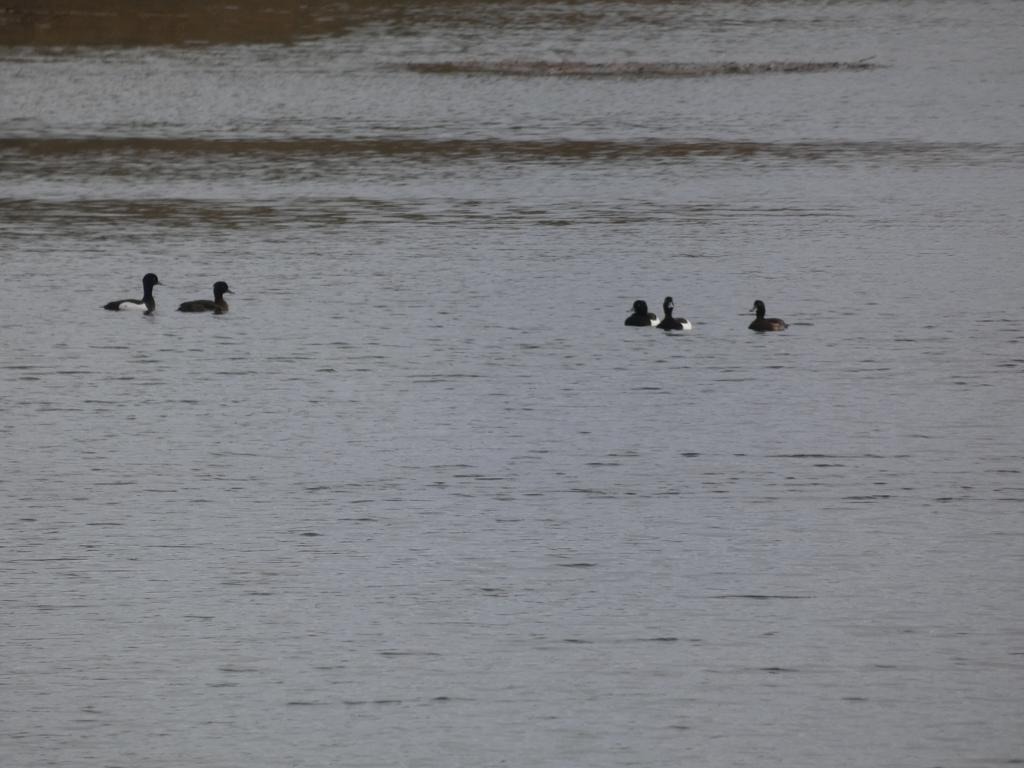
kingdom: Animalia
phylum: Chordata
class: Aves
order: Anseriformes
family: Anatidae
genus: Aythya
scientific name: Aythya fuligula
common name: Troldand
